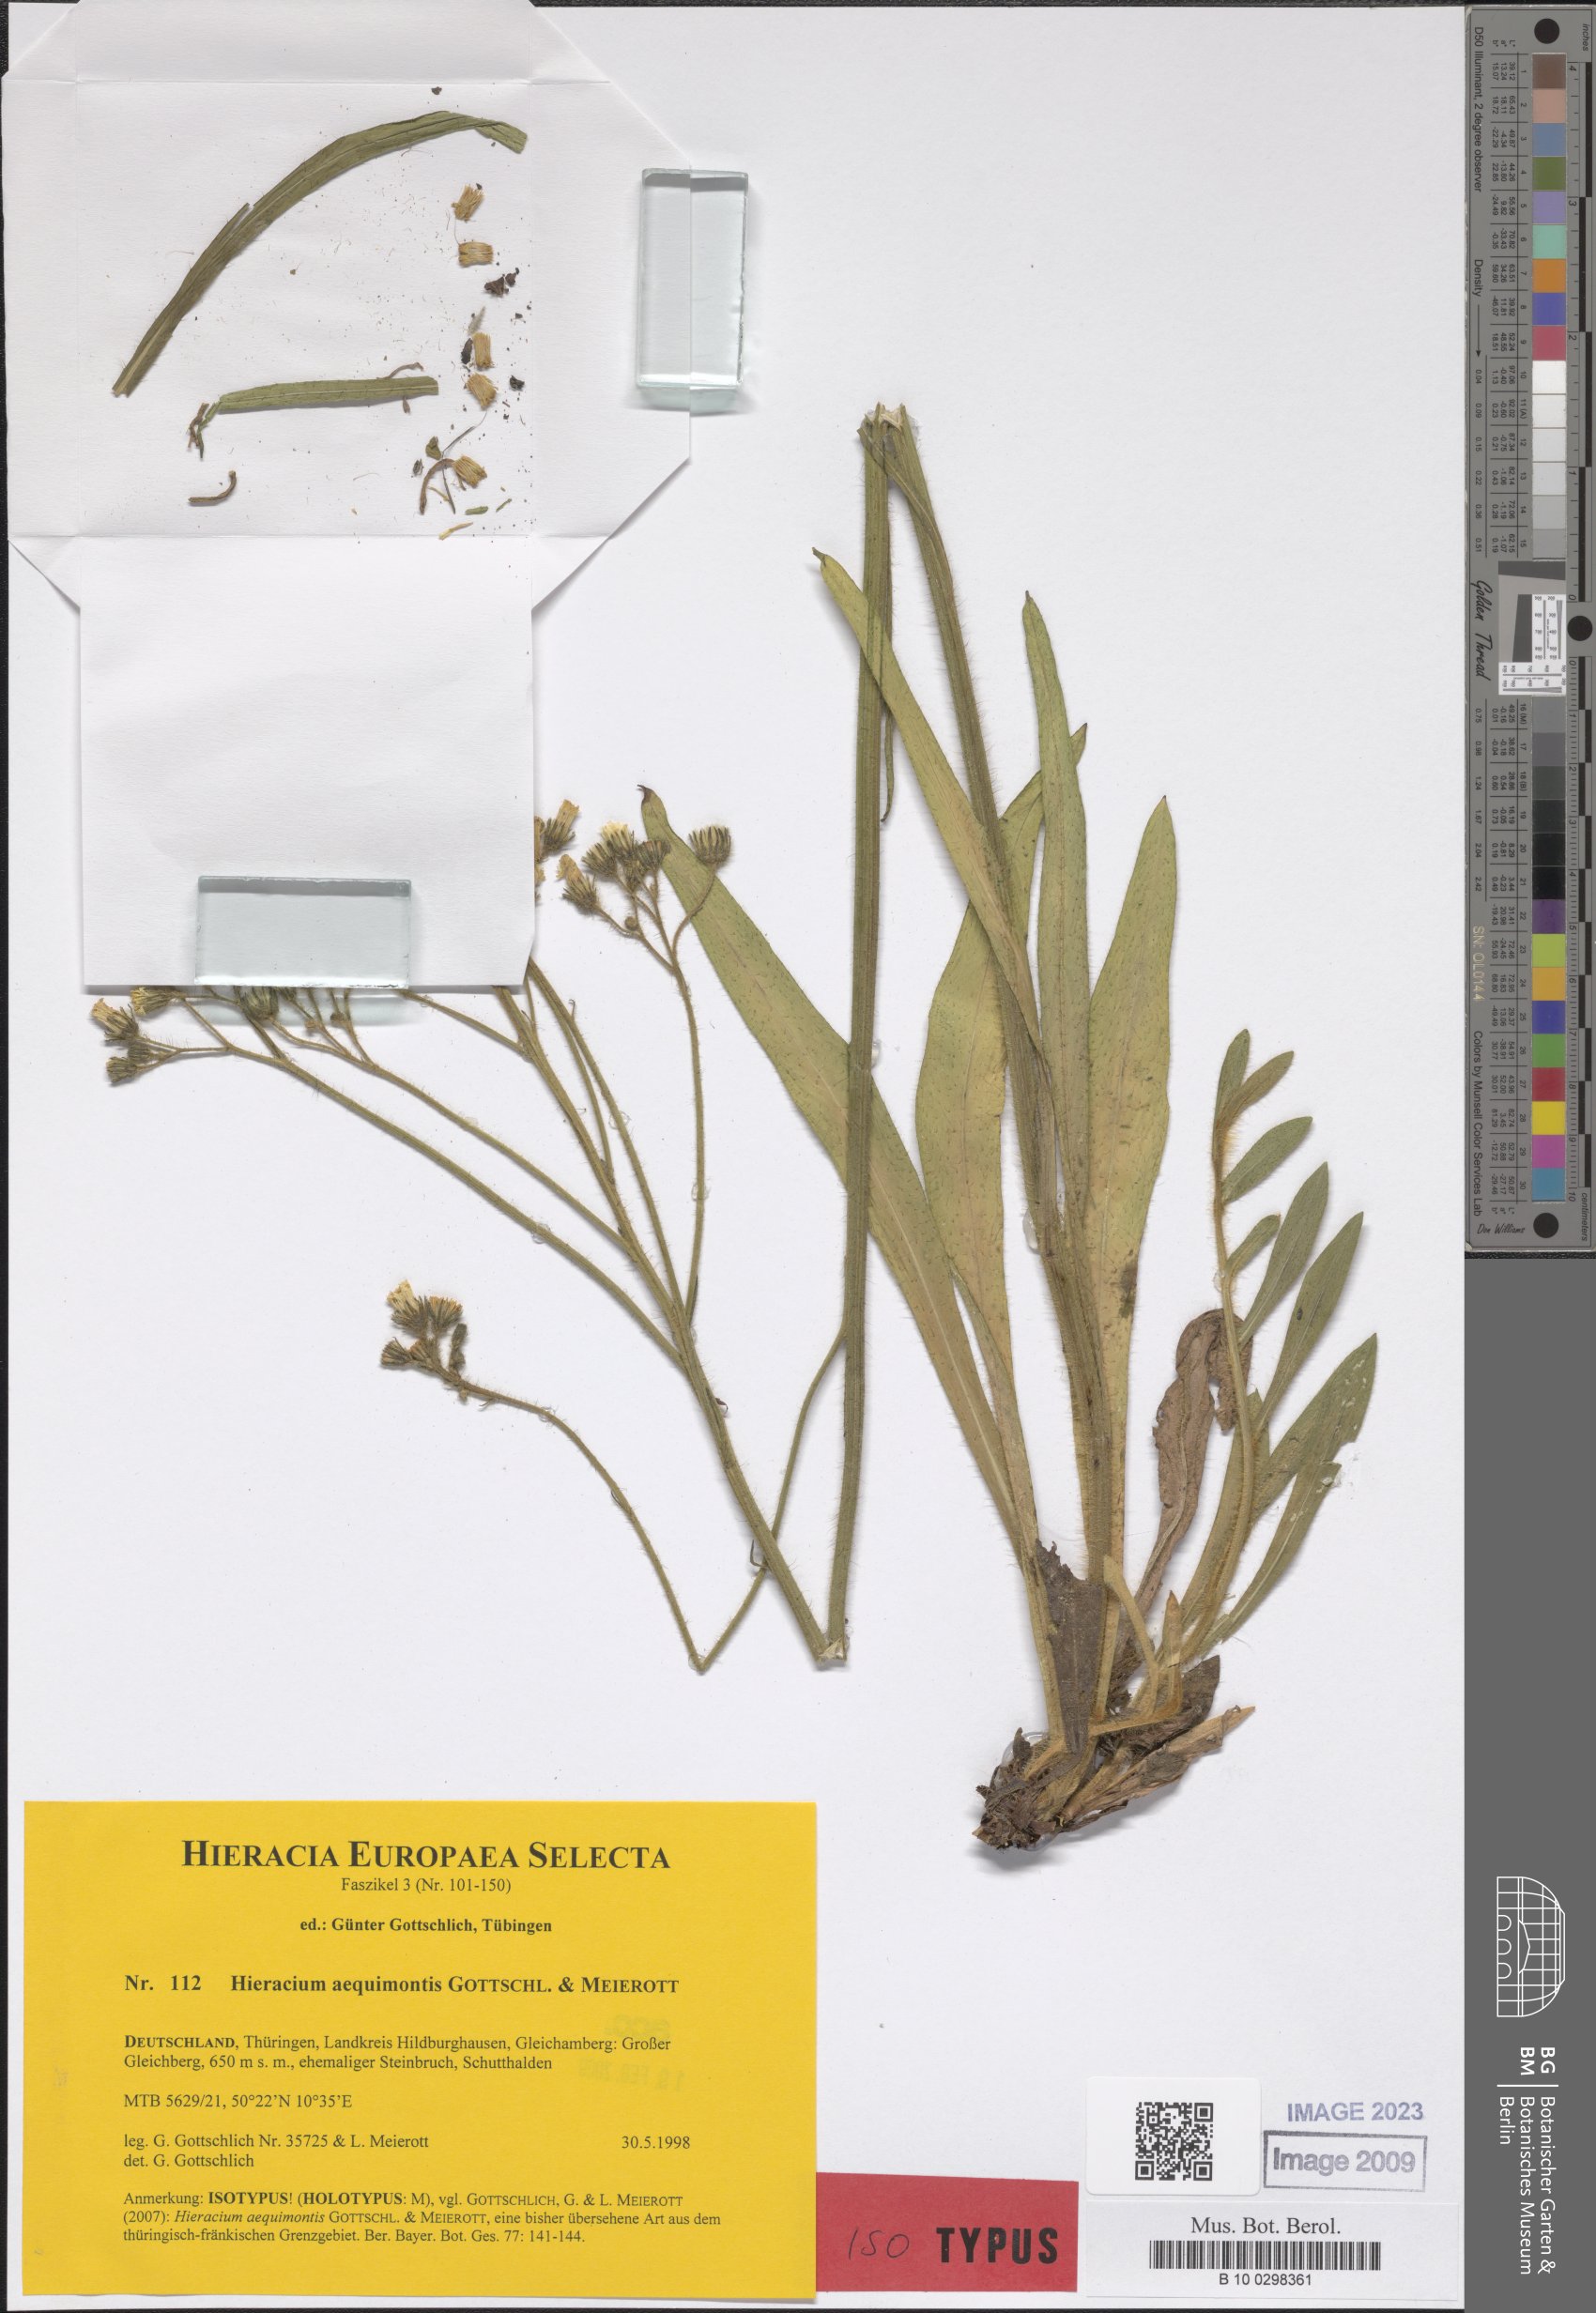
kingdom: Plantae
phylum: Tracheophyta
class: Magnoliopsida
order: Asterales
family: Asteraceae
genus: Pilosella
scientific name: Pilosella aequimontis
